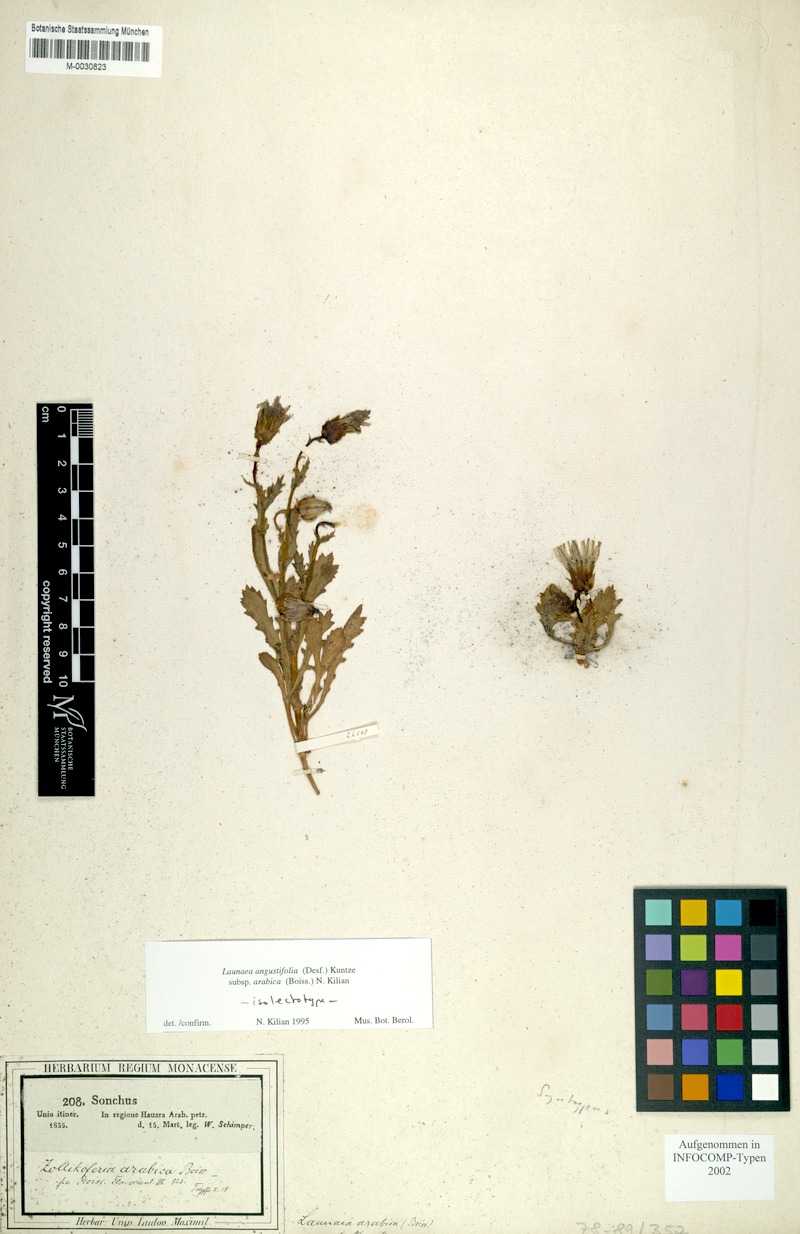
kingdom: Plantae
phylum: Tracheophyta
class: Magnoliopsida
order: Asterales
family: Asteraceae
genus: Launaea
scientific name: Launaea angustifolia
